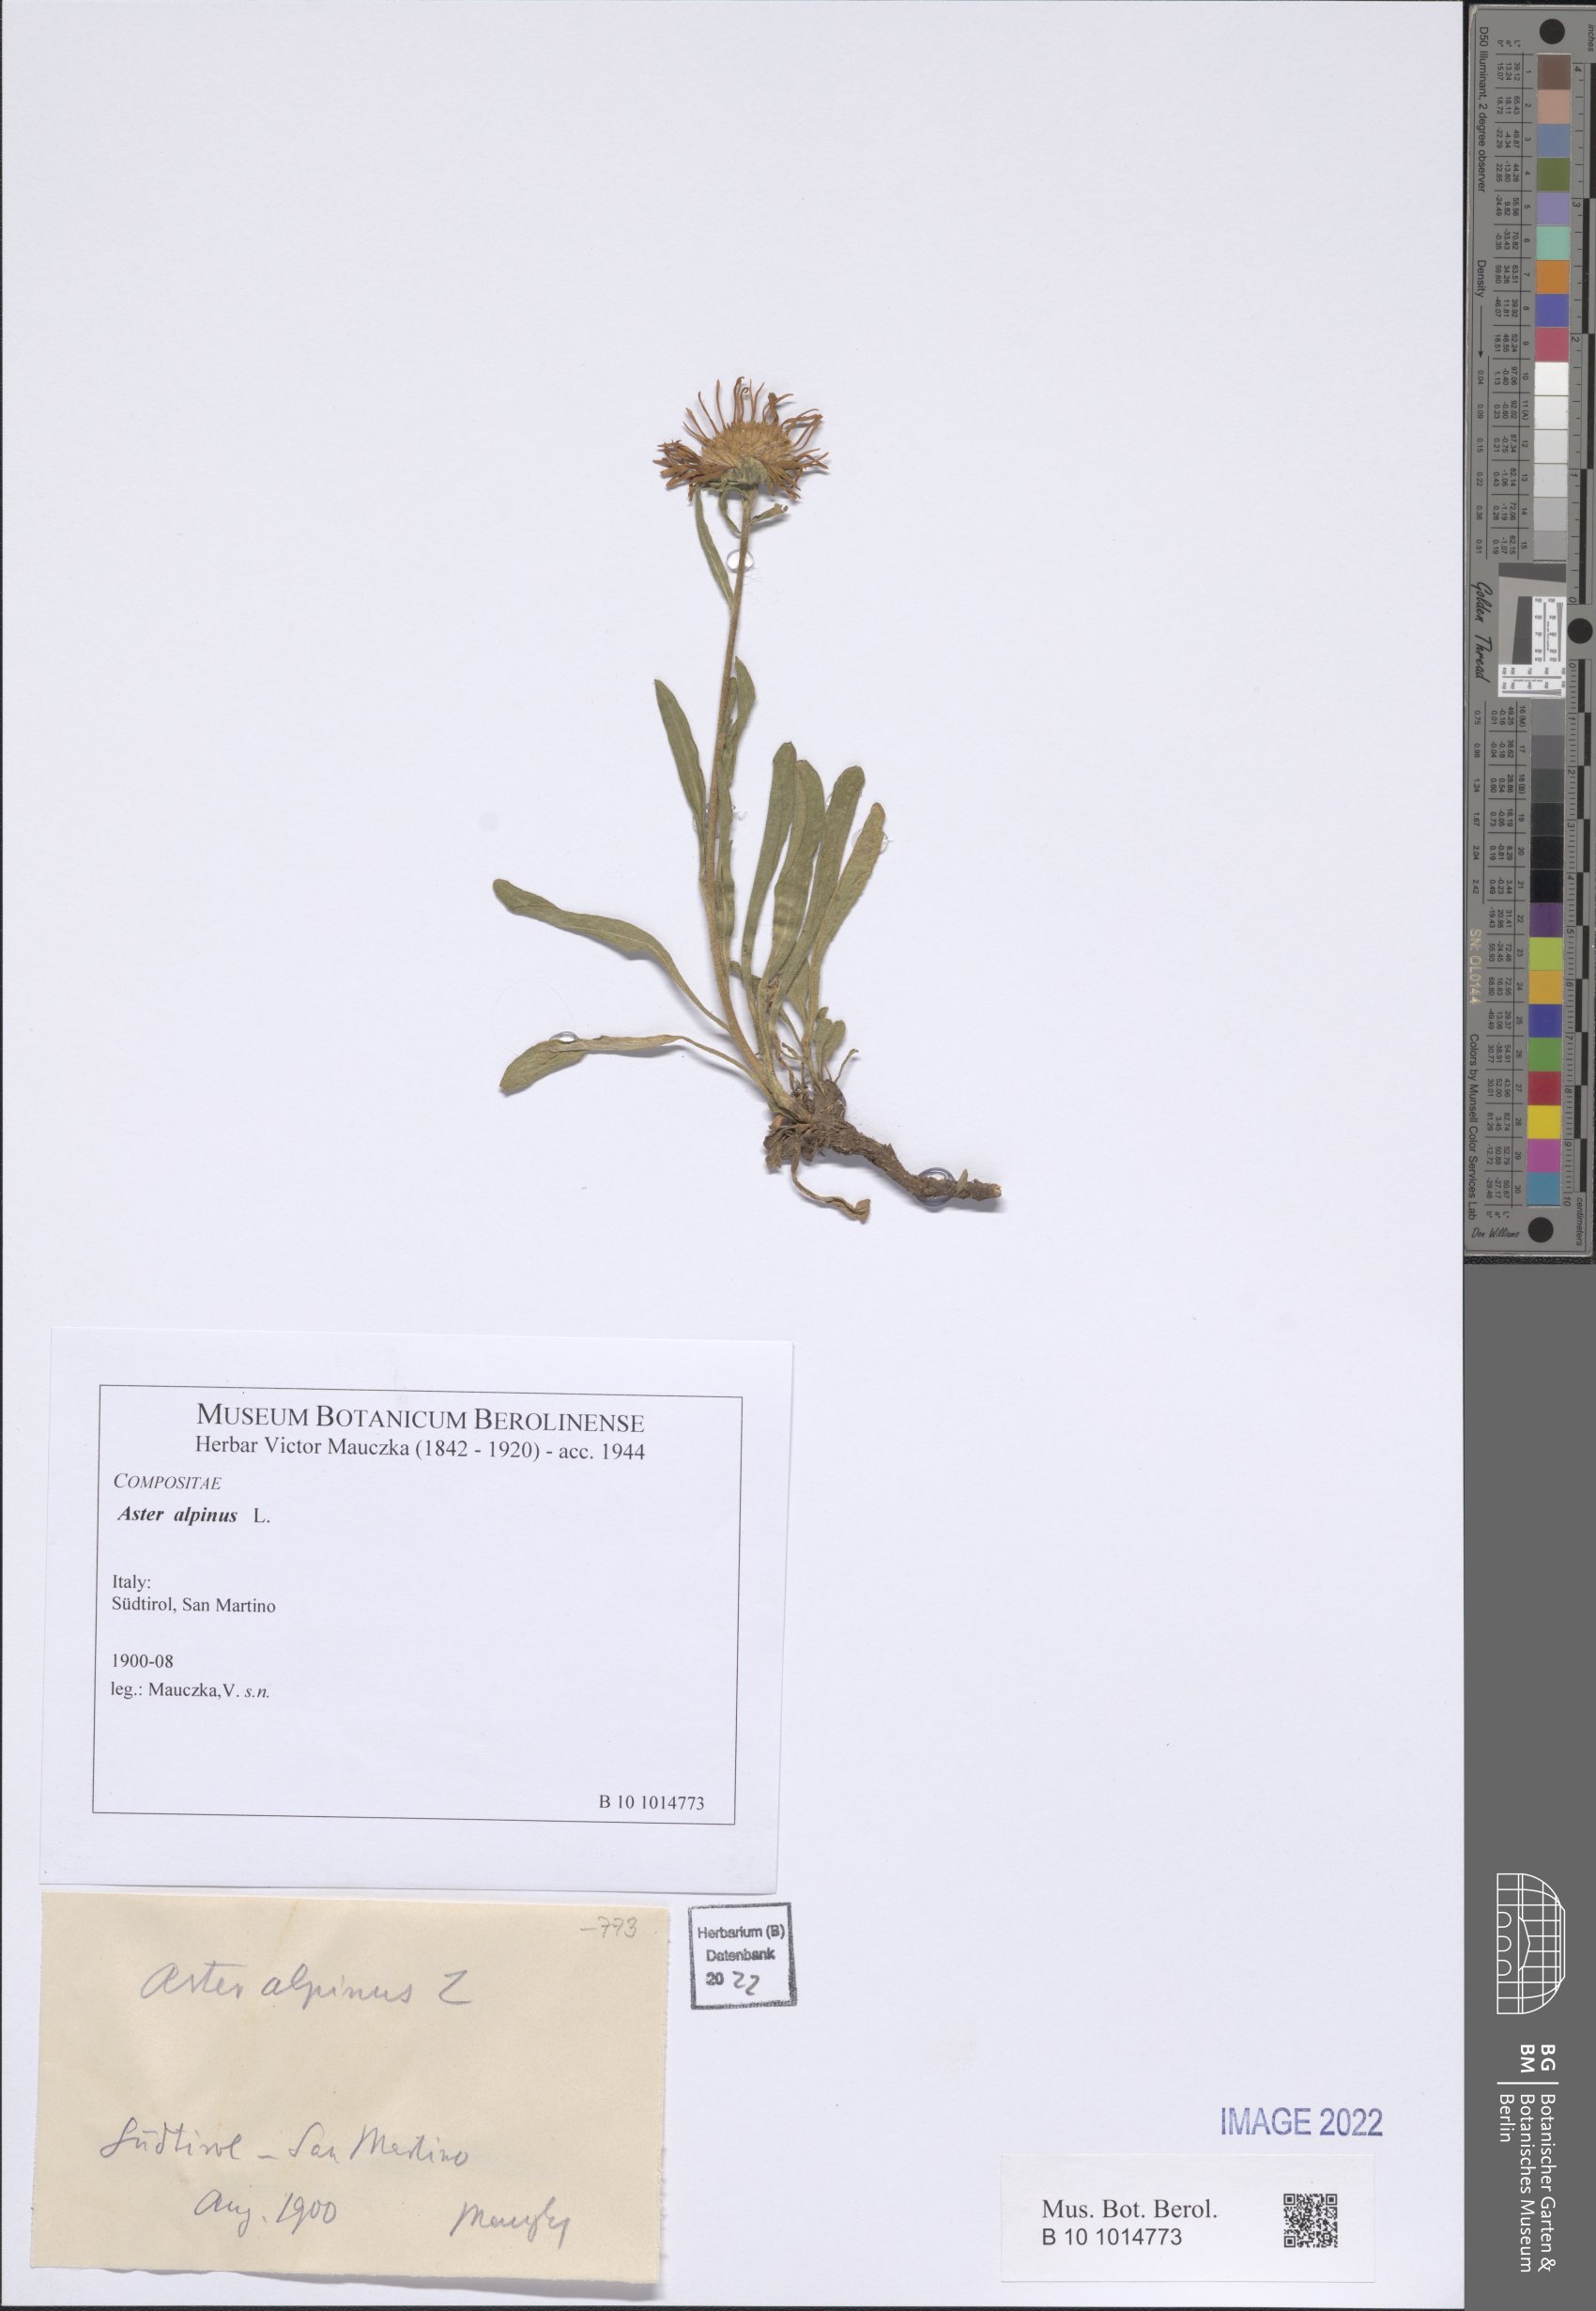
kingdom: Plantae
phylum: Tracheophyta
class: Magnoliopsida
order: Asterales
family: Asteraceae
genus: Aster
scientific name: Aster alpinus
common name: Alpine aster
